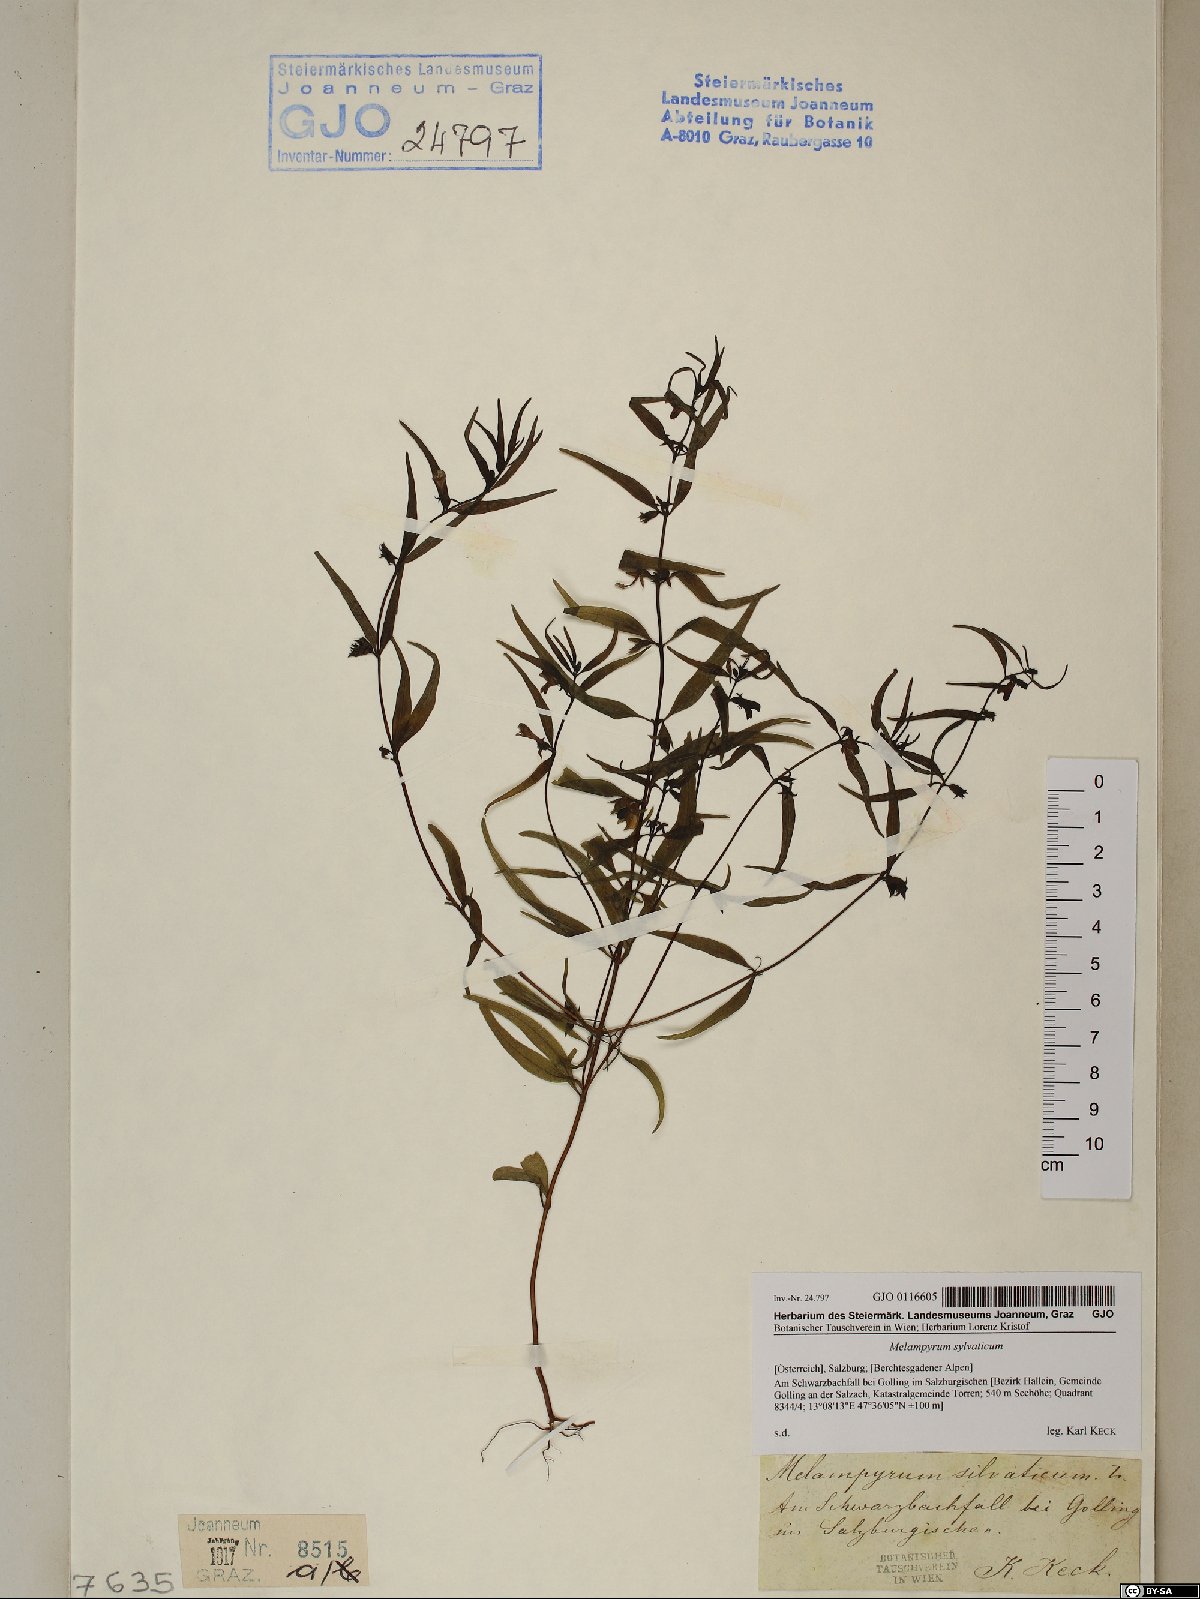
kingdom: Plantae
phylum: Tracheophyta
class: Magnoliopsida
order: Lamiales
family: Orobanchaceae
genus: Melampyrum
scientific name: Melampyrum sylvaticum
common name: Small cow-wheat
